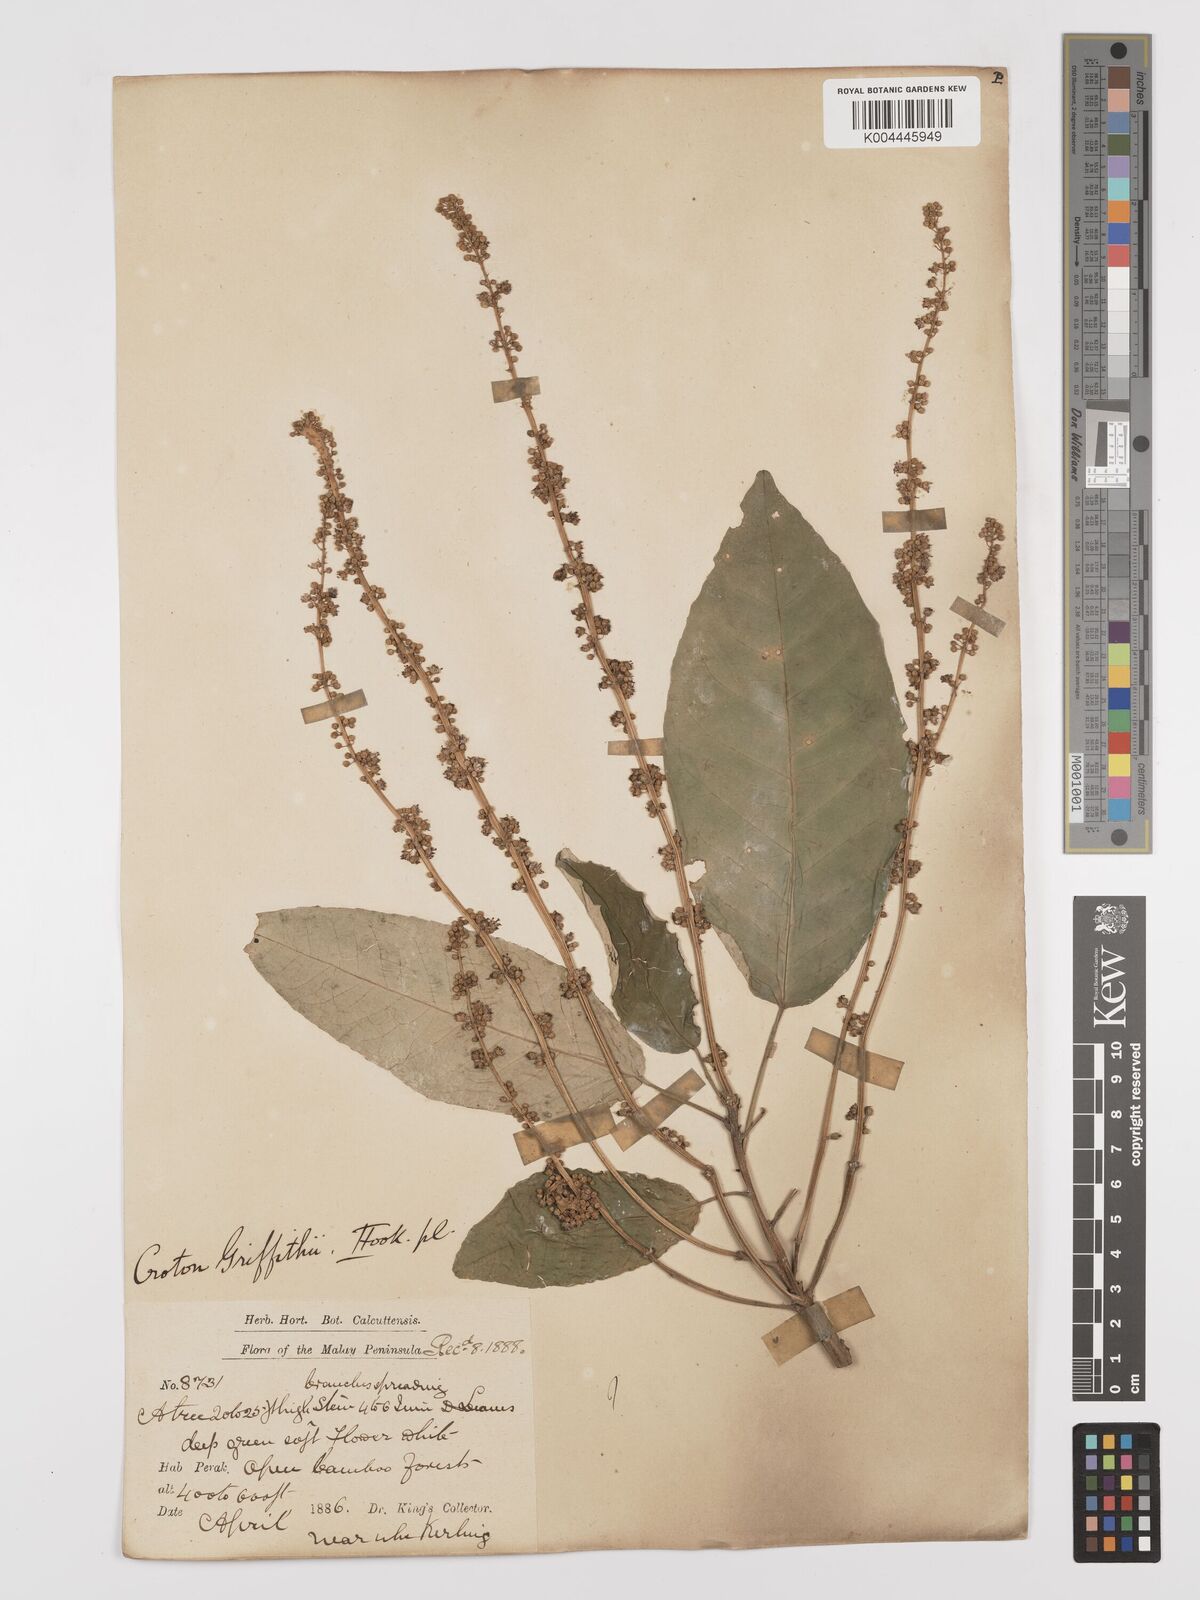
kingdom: Plantae
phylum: Tracheophyta
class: Magnoliopsida
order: Malpighiales
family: Euphorbiaceae
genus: Croton
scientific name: Croton griffithii
